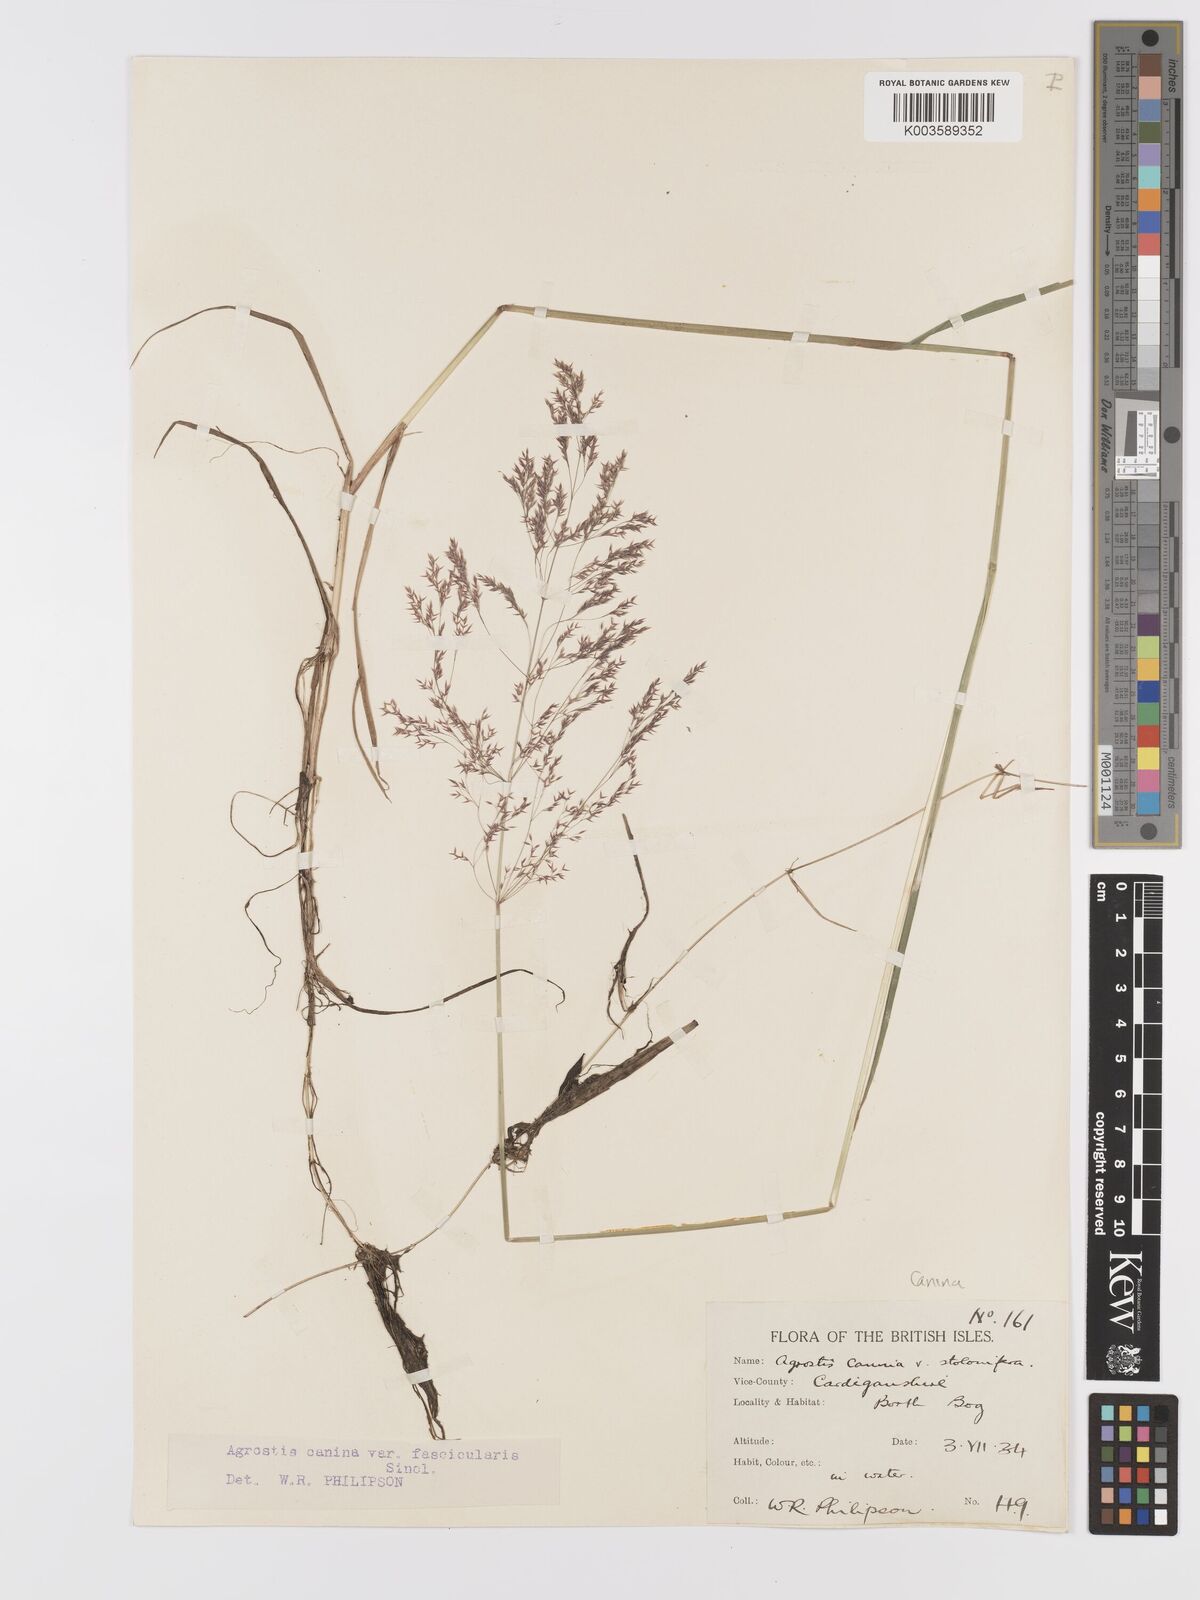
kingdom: Plantae
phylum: Tracheophyta
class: Liliopsida
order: Poales
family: Poaceae
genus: Agrostis
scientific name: Agrostis canina
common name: Velvet bent
